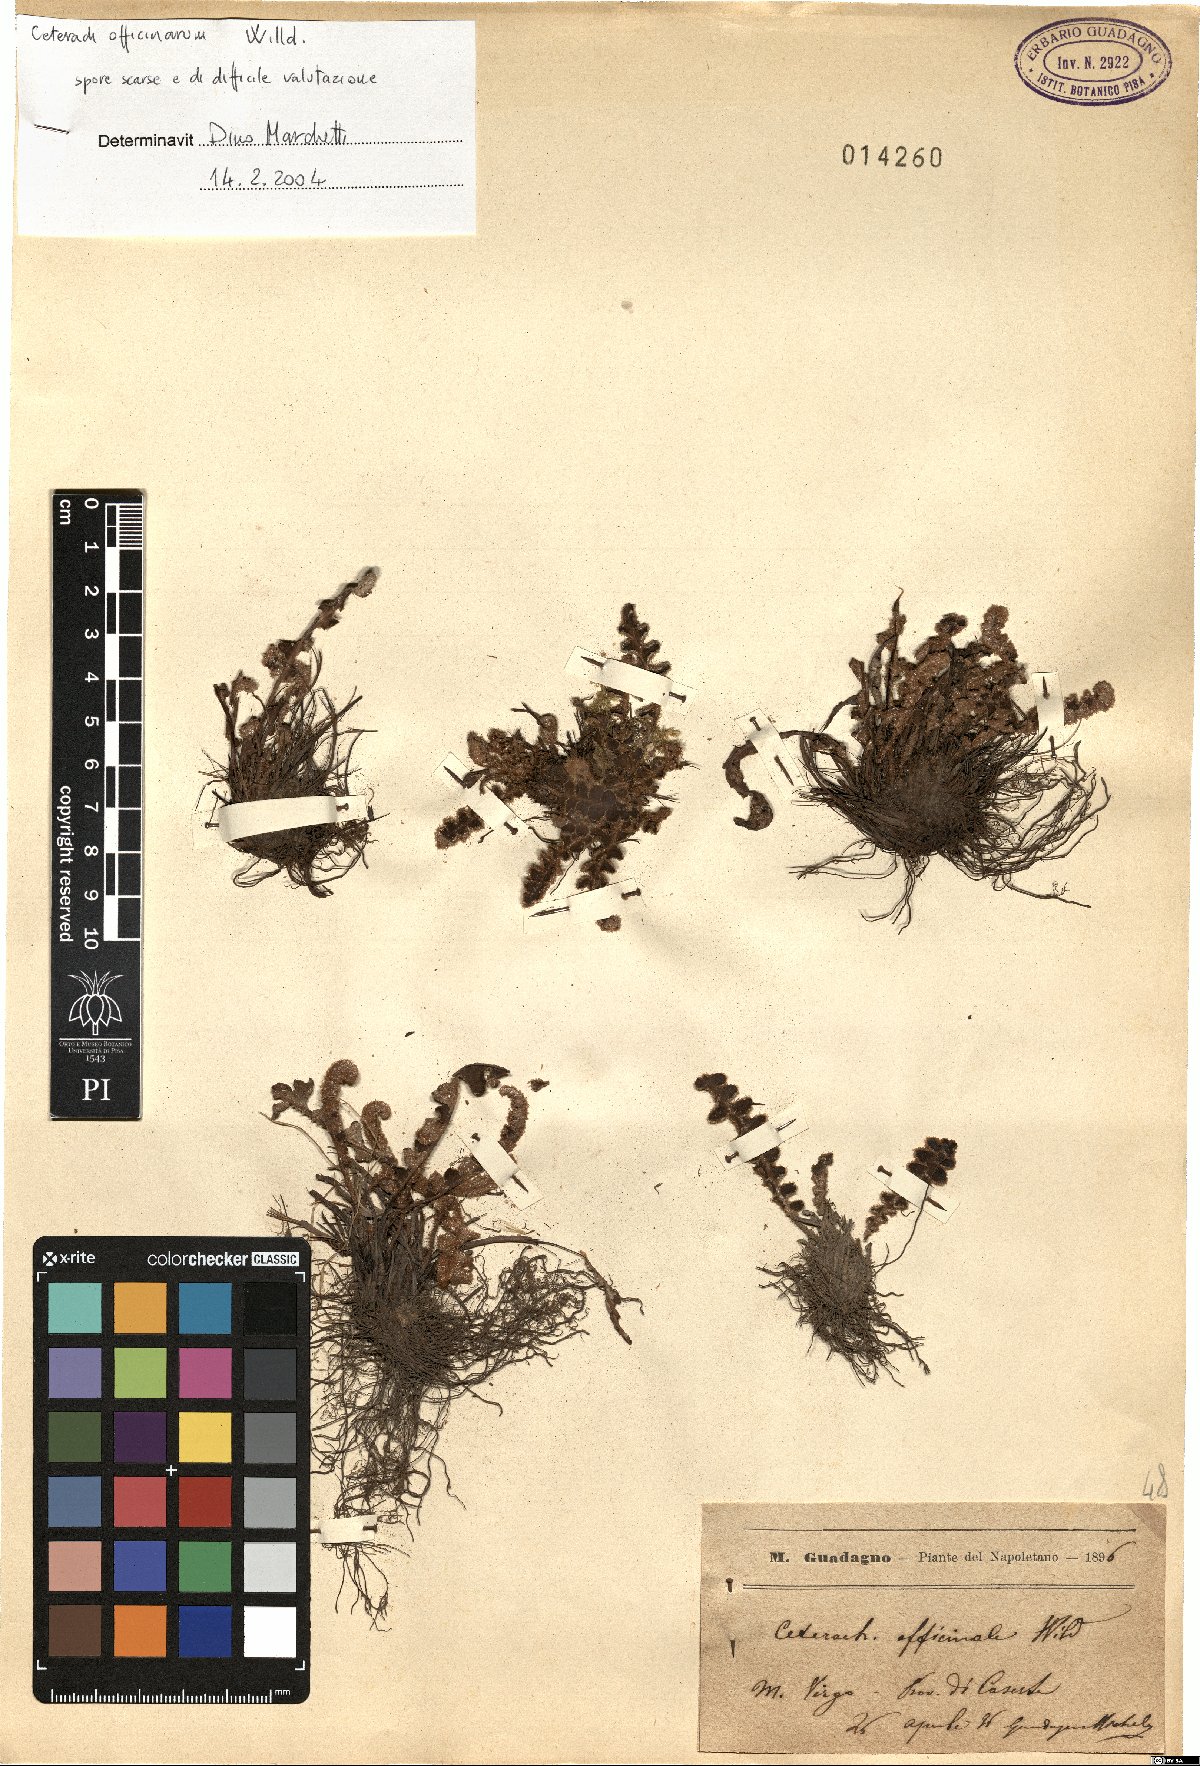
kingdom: Plantae
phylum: Tracheophyta
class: Polypodiopsida
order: Polypodiales
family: Aspleniaceae
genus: Asplenium
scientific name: Asplenium ceterach
